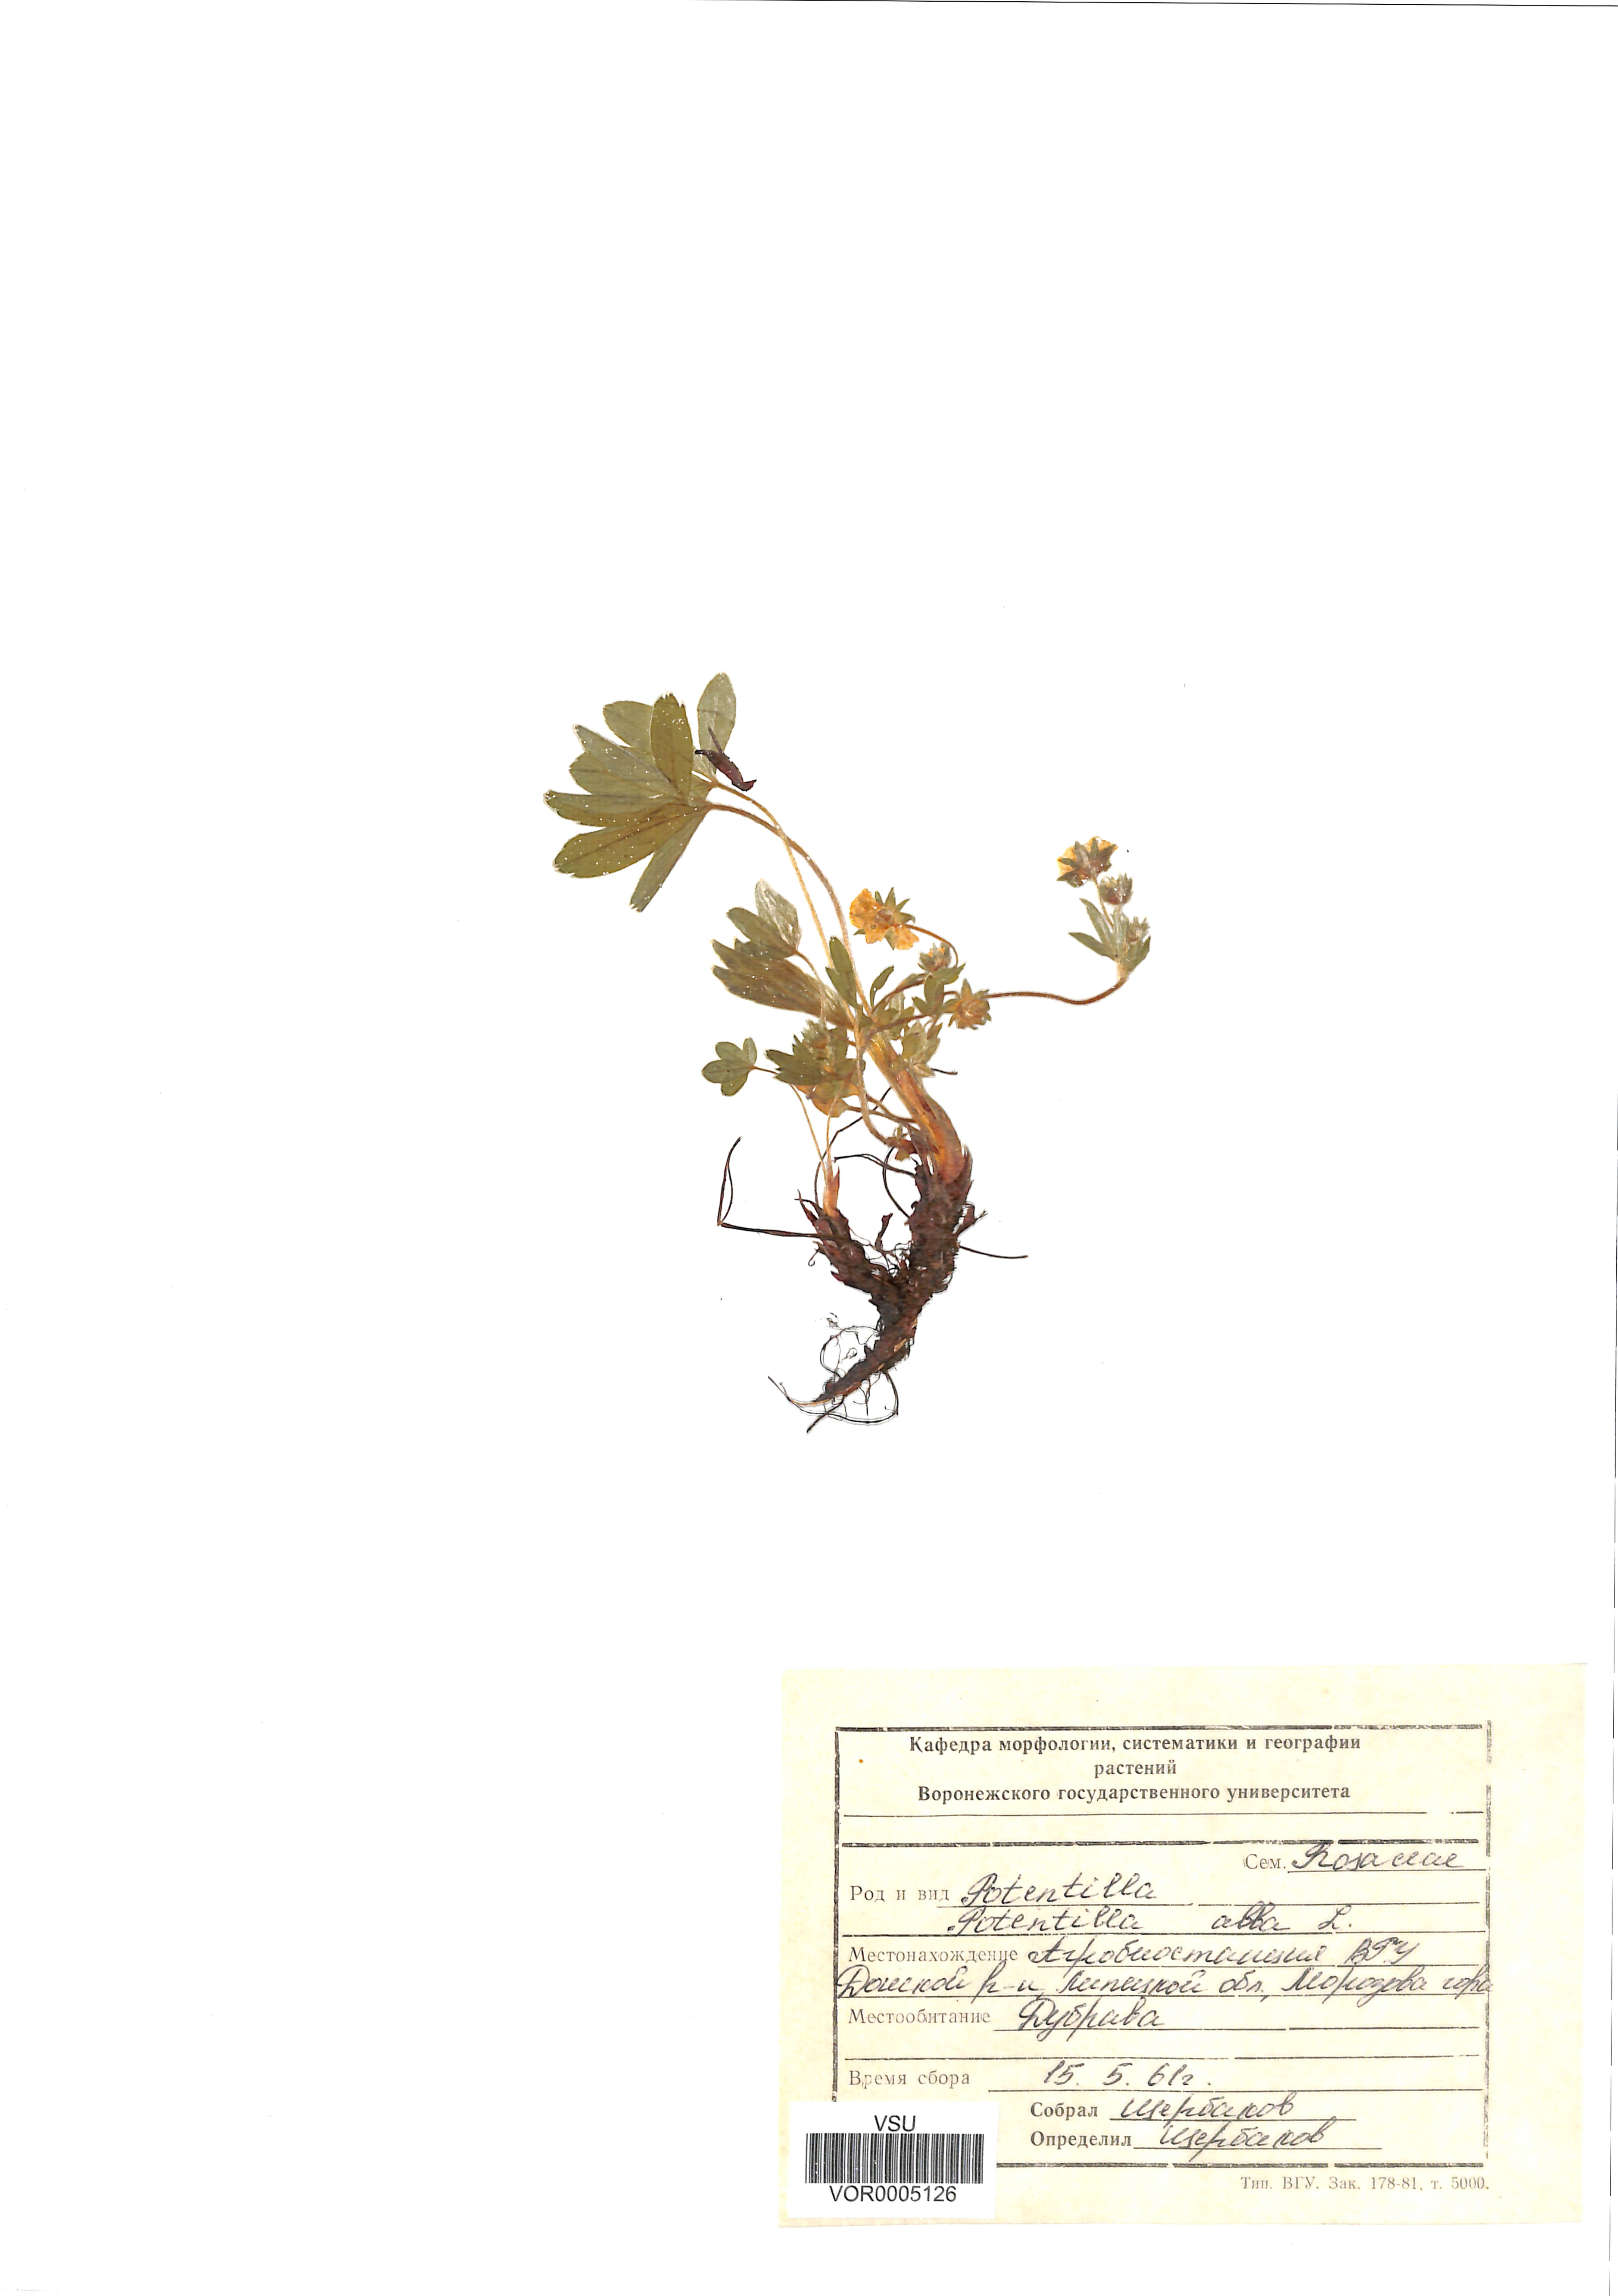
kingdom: Plantae
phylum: Tracheophyta
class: Magnoliopsida
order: Rosales
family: Rosaceae
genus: Potentilla
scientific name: Potentilla alba
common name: White cinquefoil
